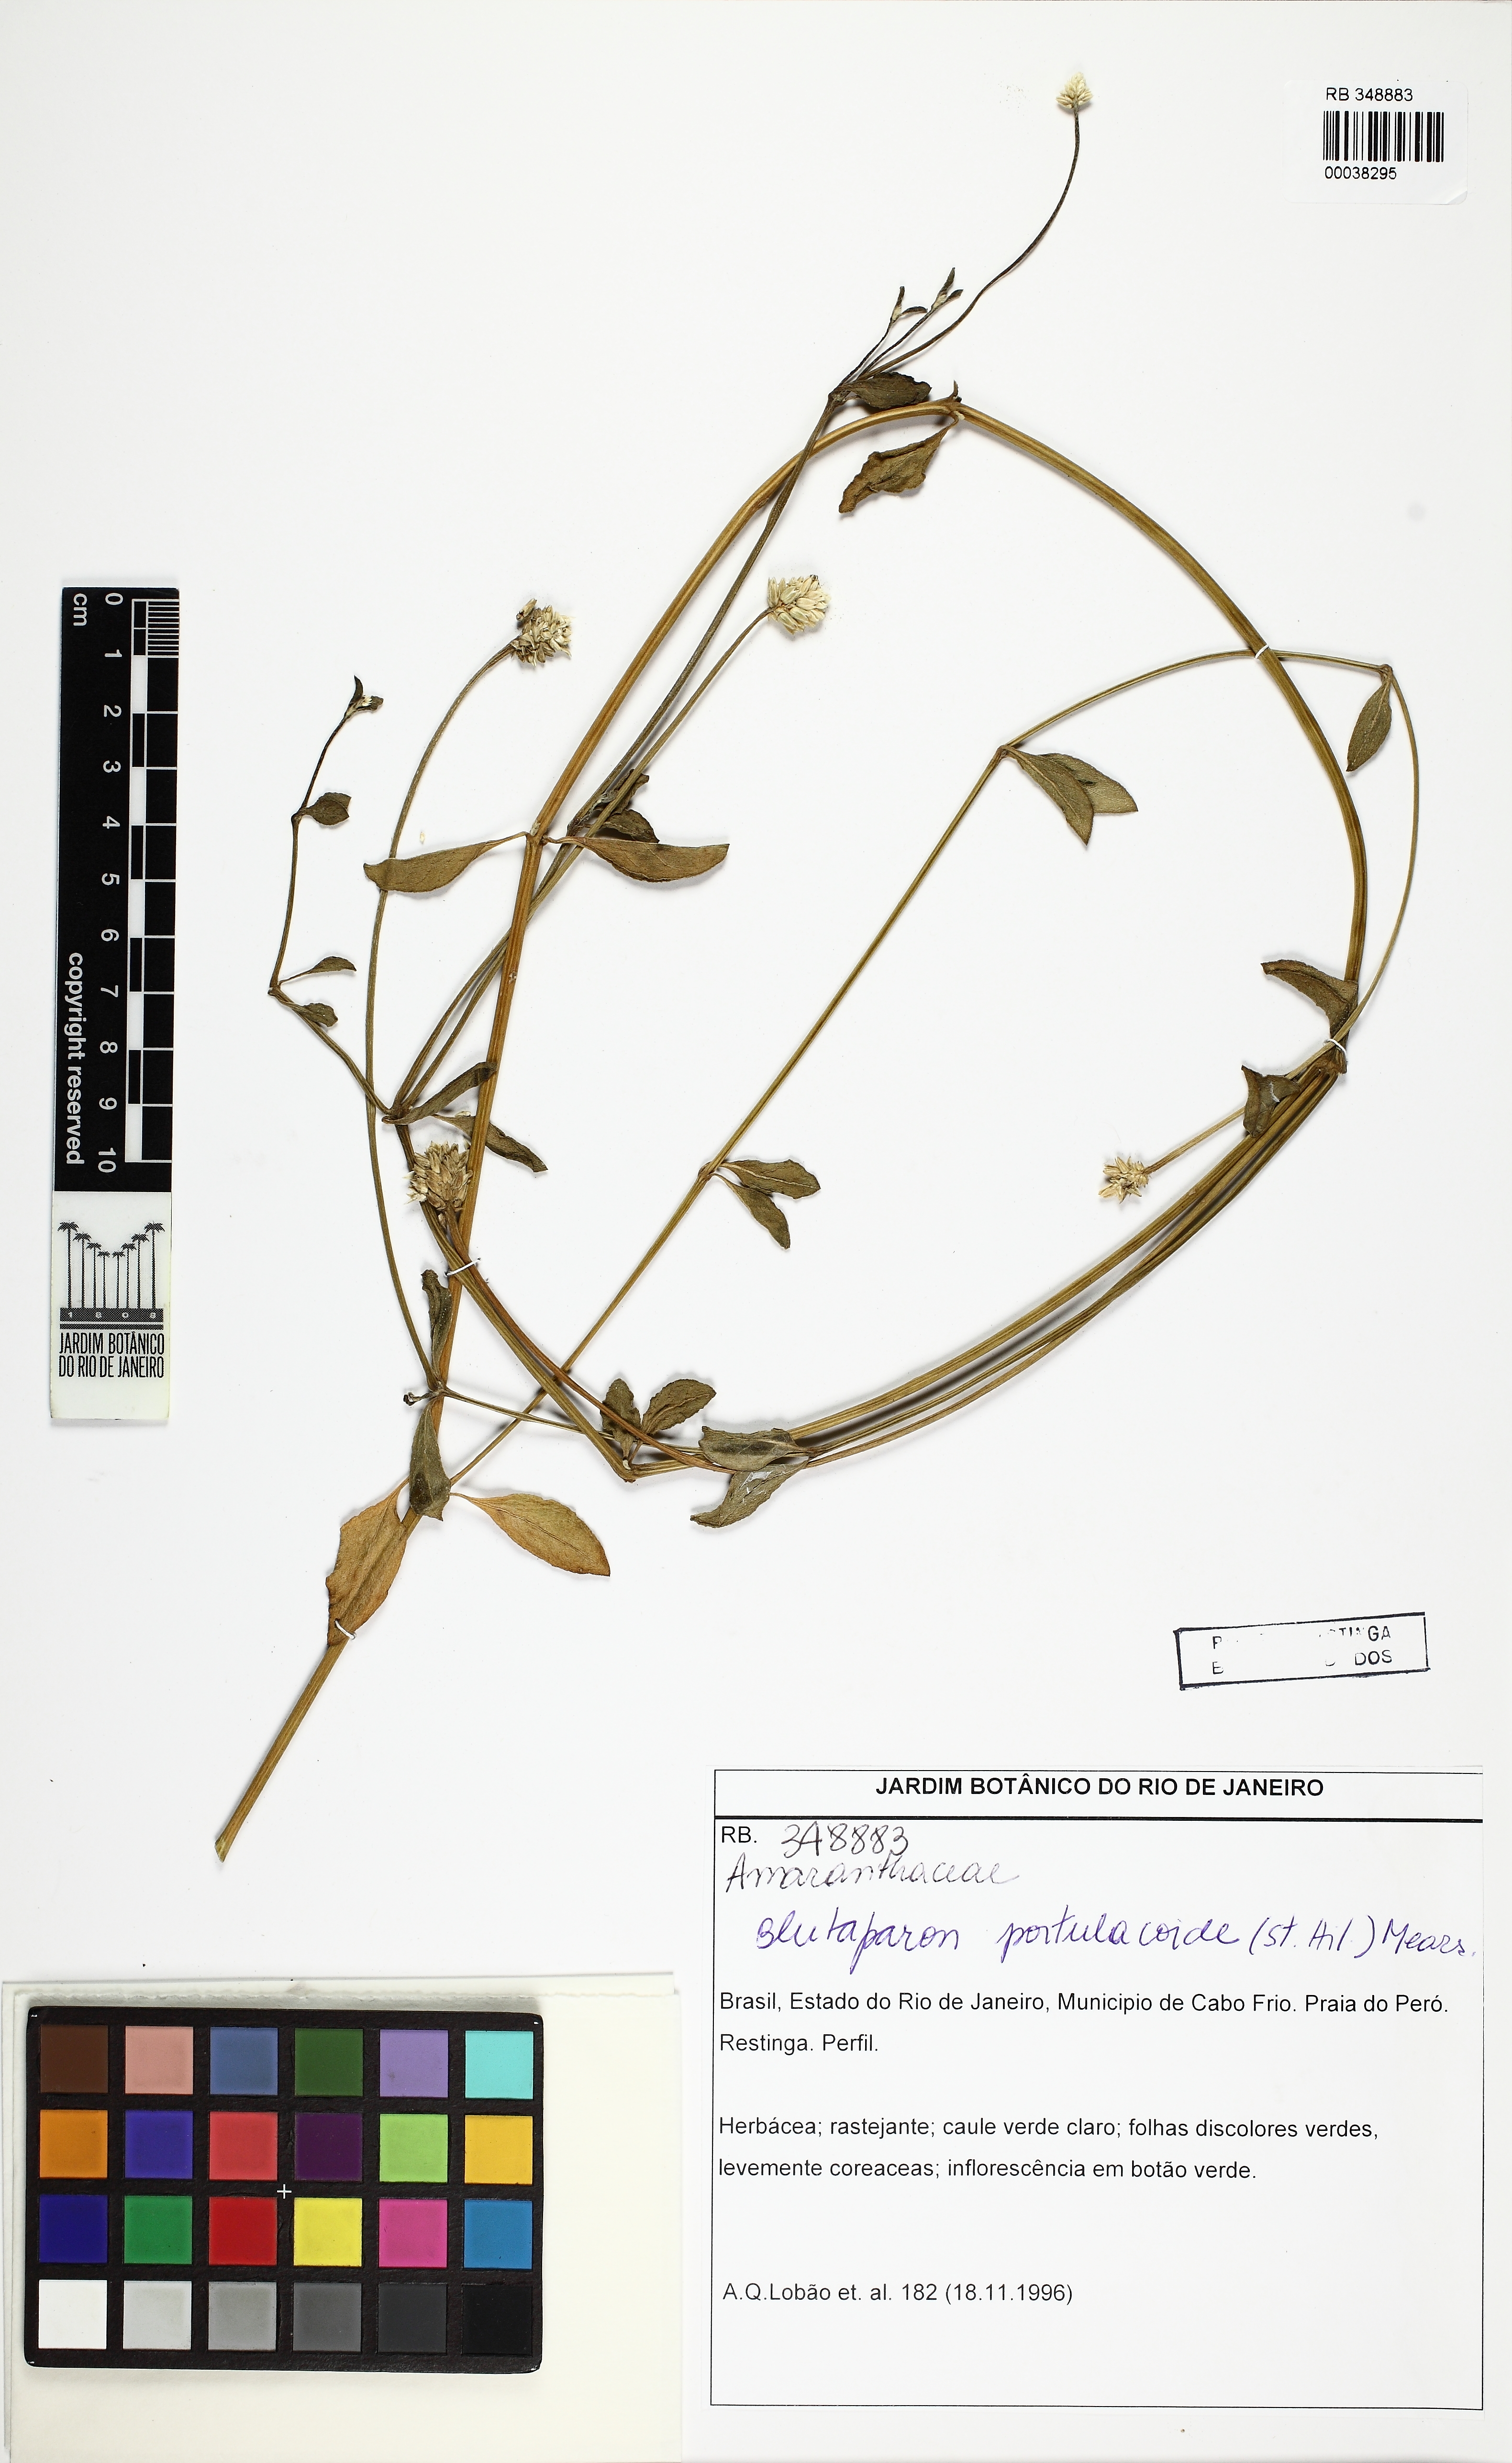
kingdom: Plantae
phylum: Tracheophyta
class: Magnoliopsida
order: Caryophyllales
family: Amaranthaceae
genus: Gomphrena
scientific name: Gomphrena portulacoides
